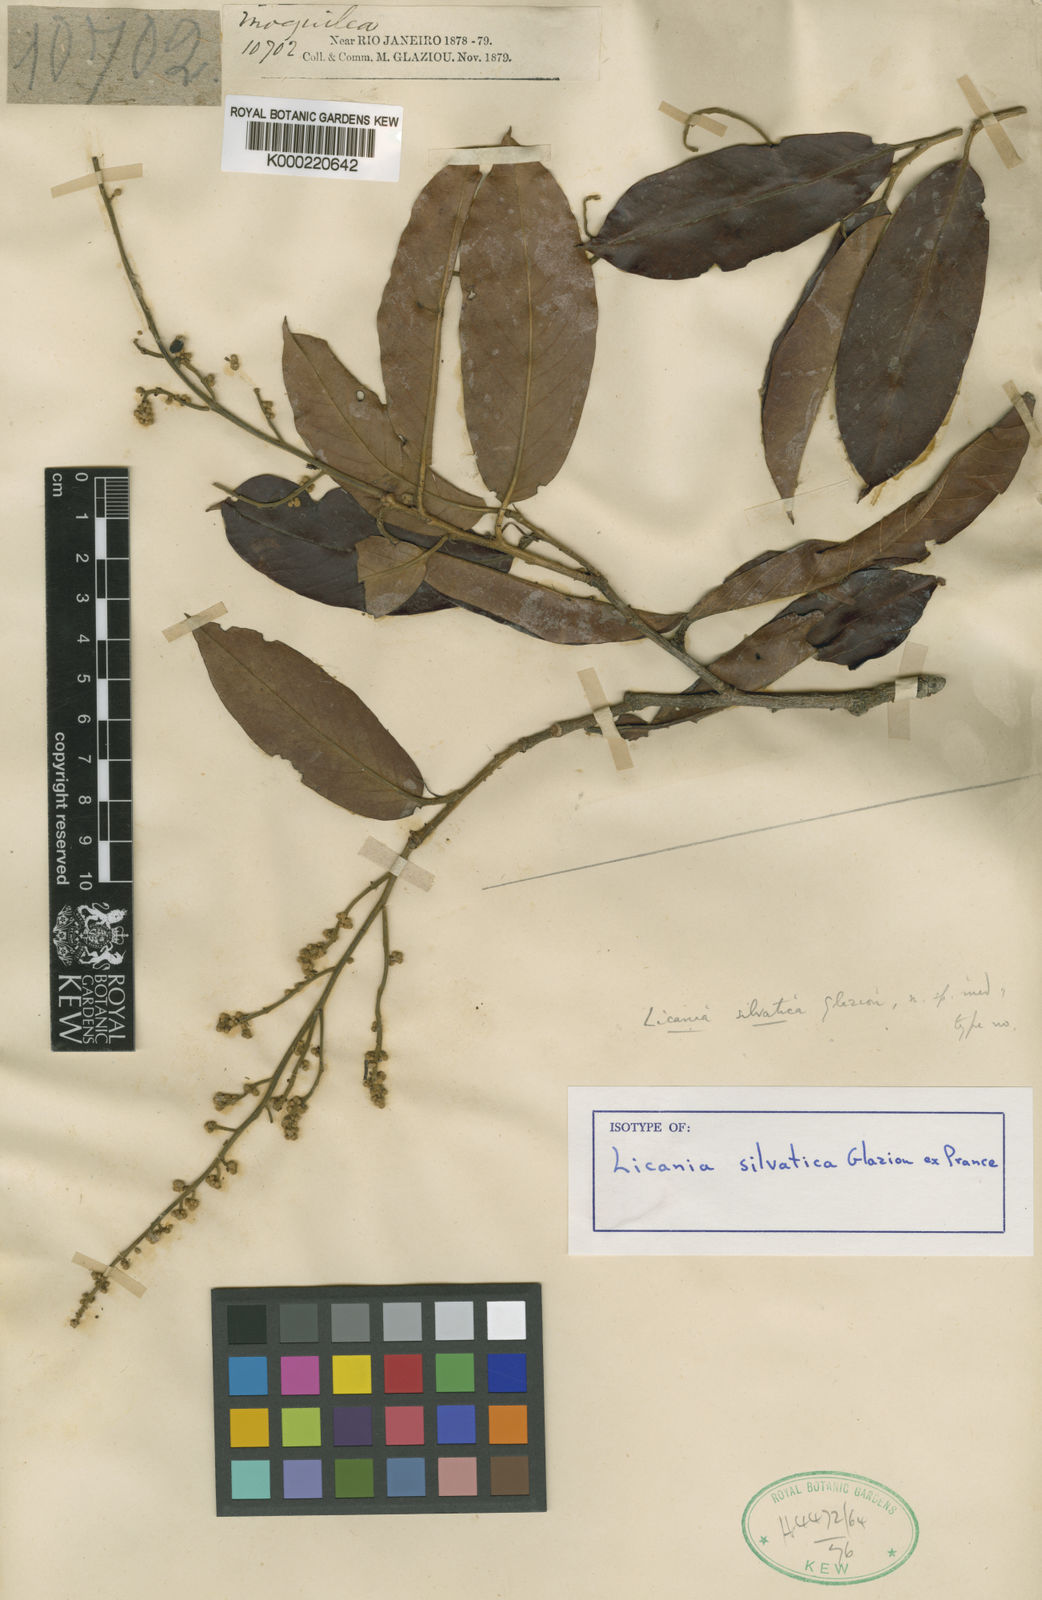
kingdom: Plantae
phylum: Tracheophyta
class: Magnoliopsida
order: Malpighiales
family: Chrysobalanaceae
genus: Moquilea
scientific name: Moquilea silvatica
